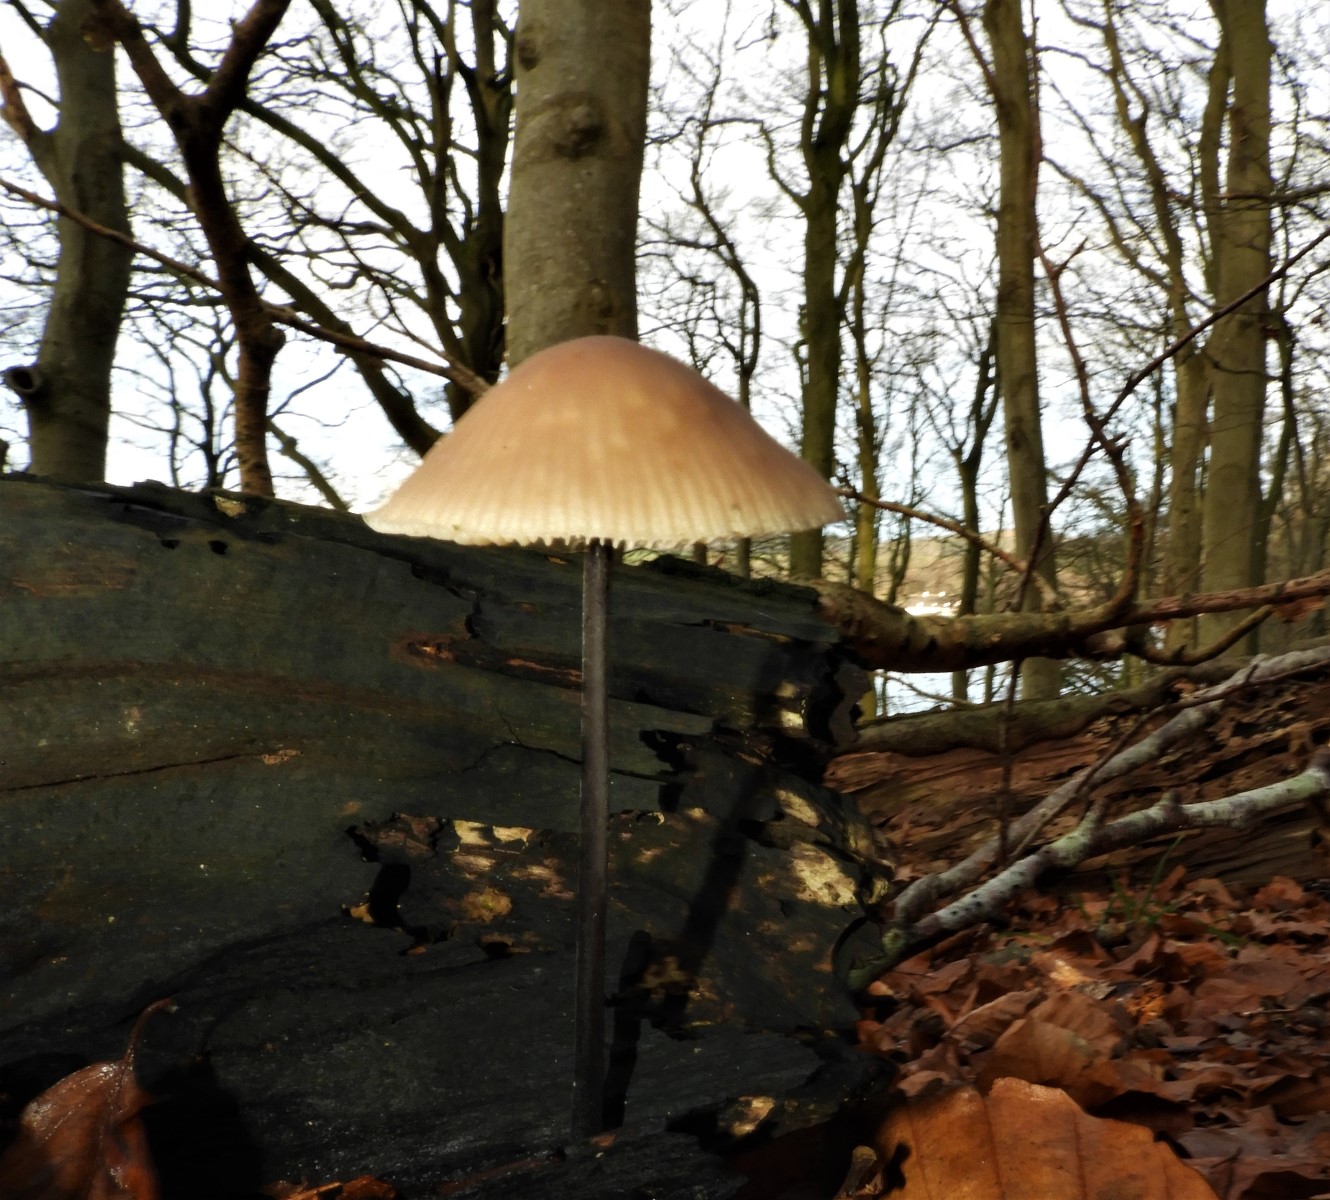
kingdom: Fungi
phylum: Basidiomycota
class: Agaricomycetes
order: Agaricales
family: Omphalotaceae
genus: Mycetinis
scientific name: Mycetinis alliaceus
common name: stor løghat
